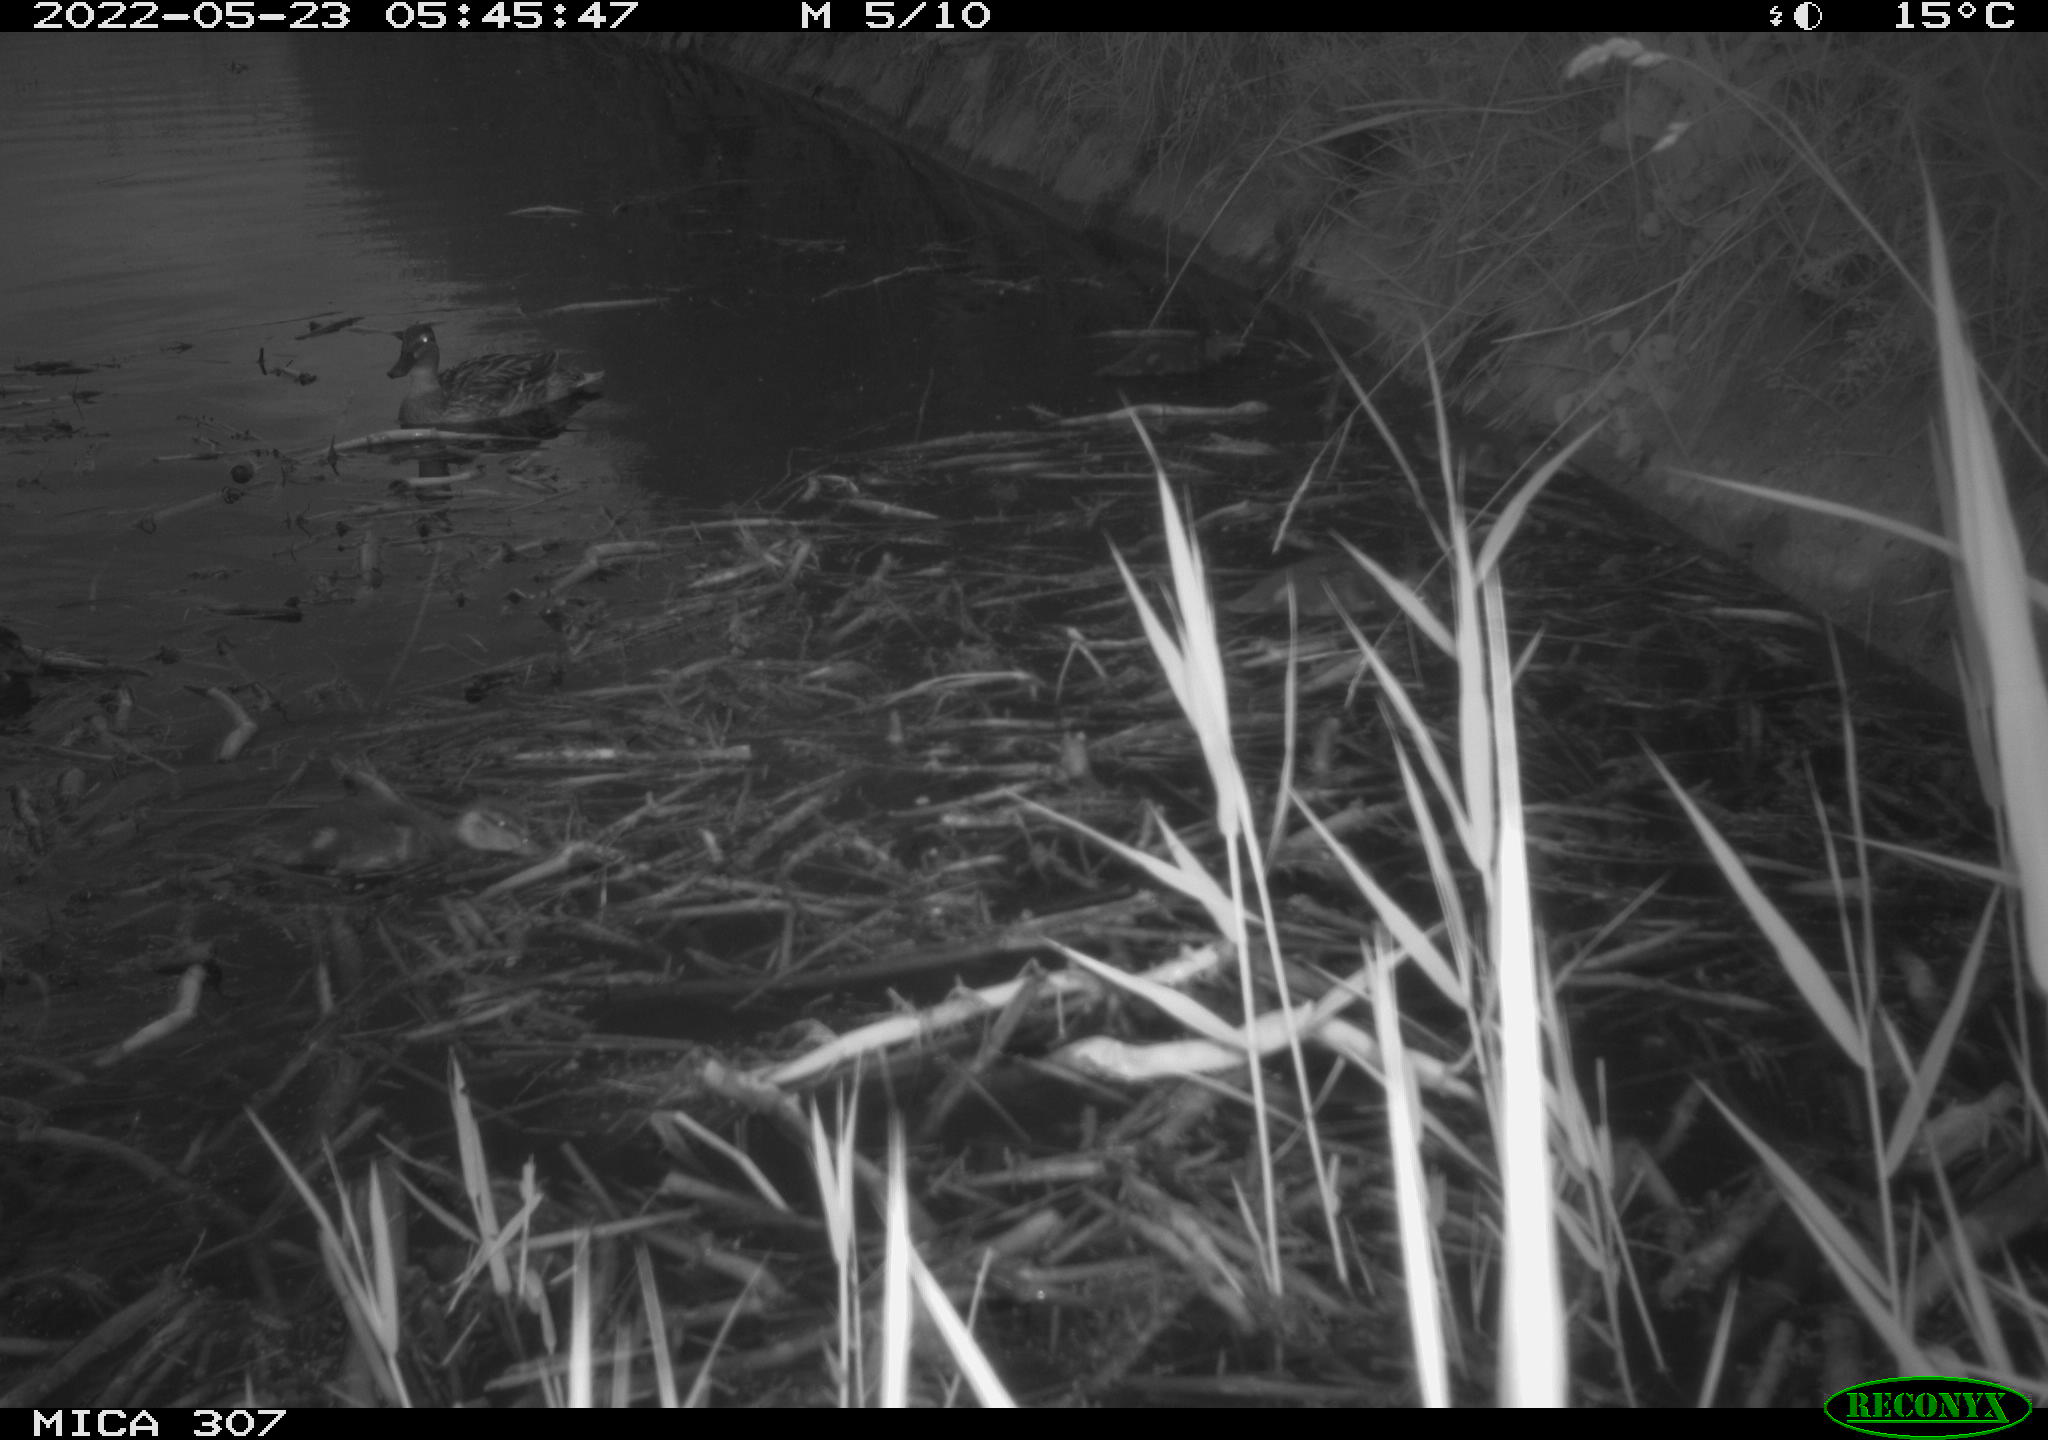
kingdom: Animalia
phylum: Chordata
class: Aves
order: Anseriformes
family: Anatidae
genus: Anas
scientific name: Anas platyrhynchos
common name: Mallard
